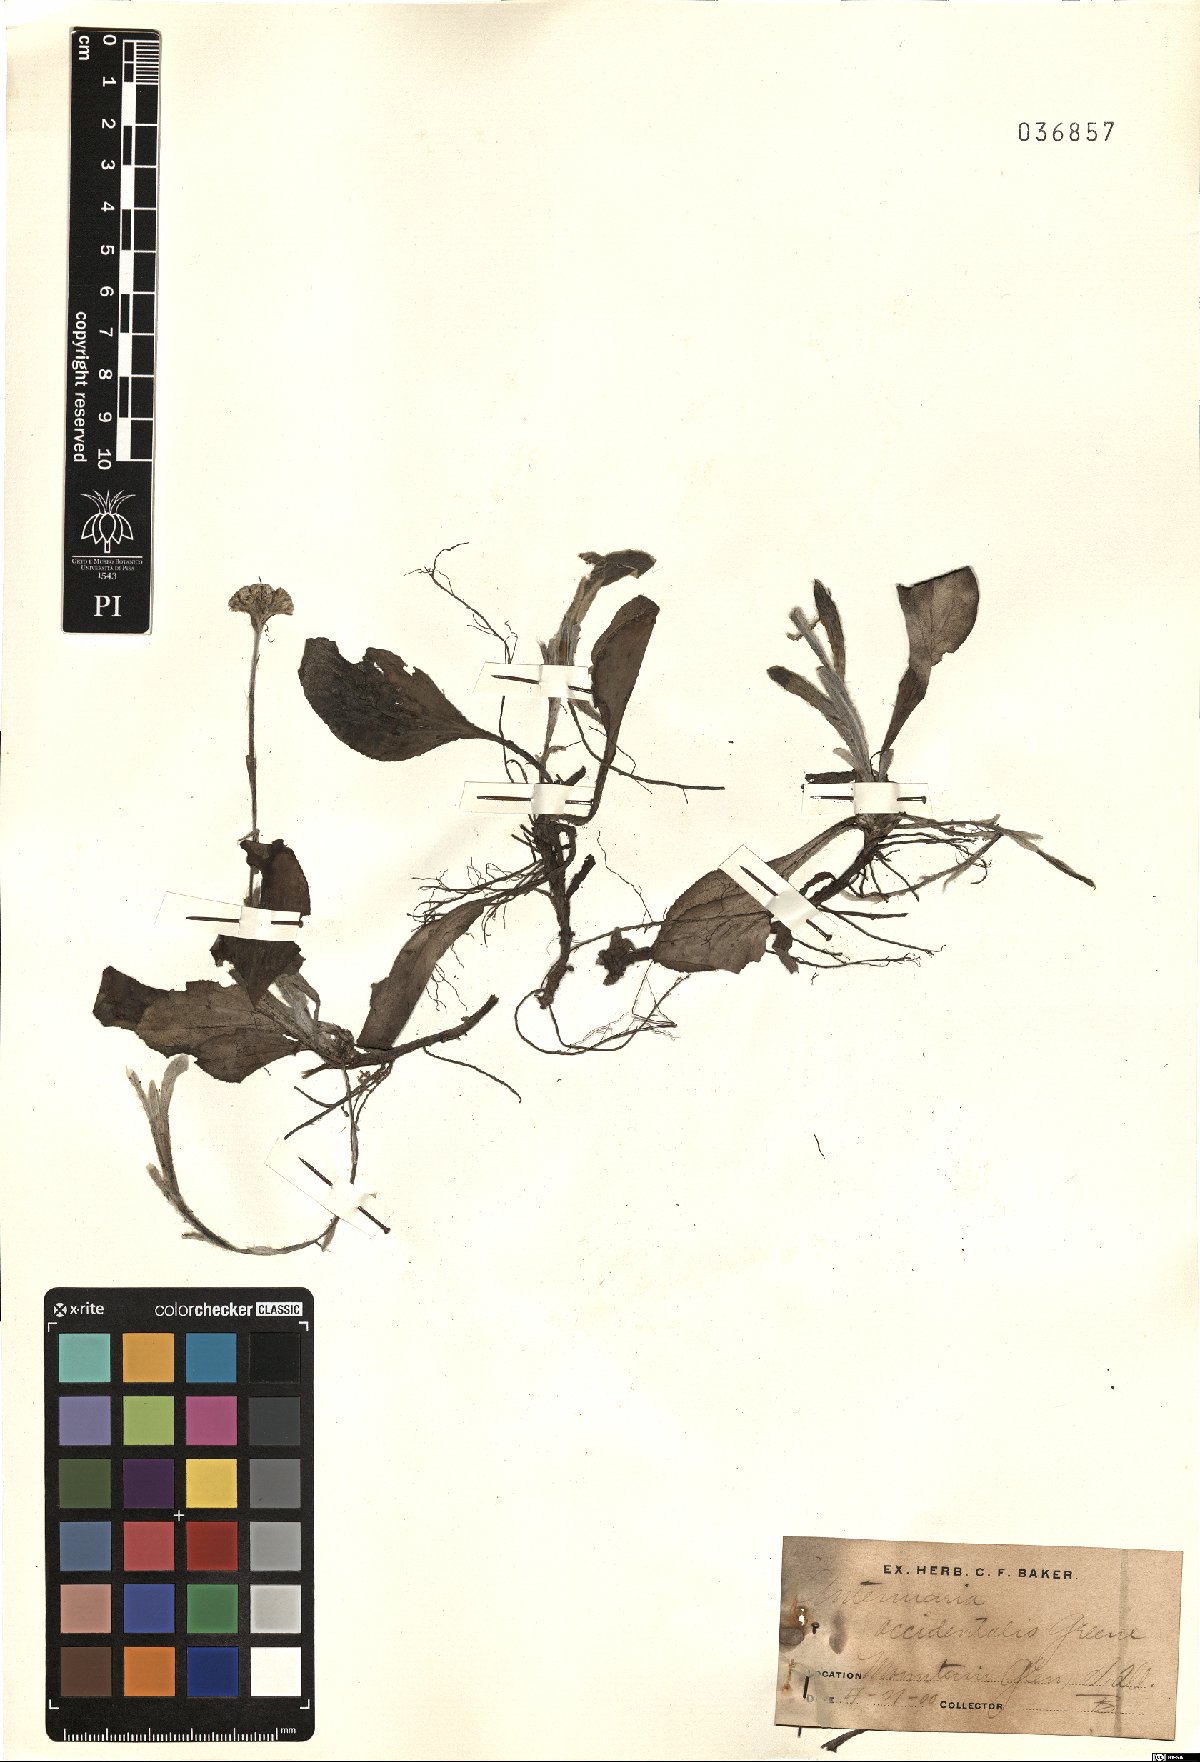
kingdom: Plantae
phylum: Tracheophyta
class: Magnoliopsida
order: Asterales
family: Asteraceae
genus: Antennaria
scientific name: Antennaria parlinii
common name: Parlin's pussytoes
